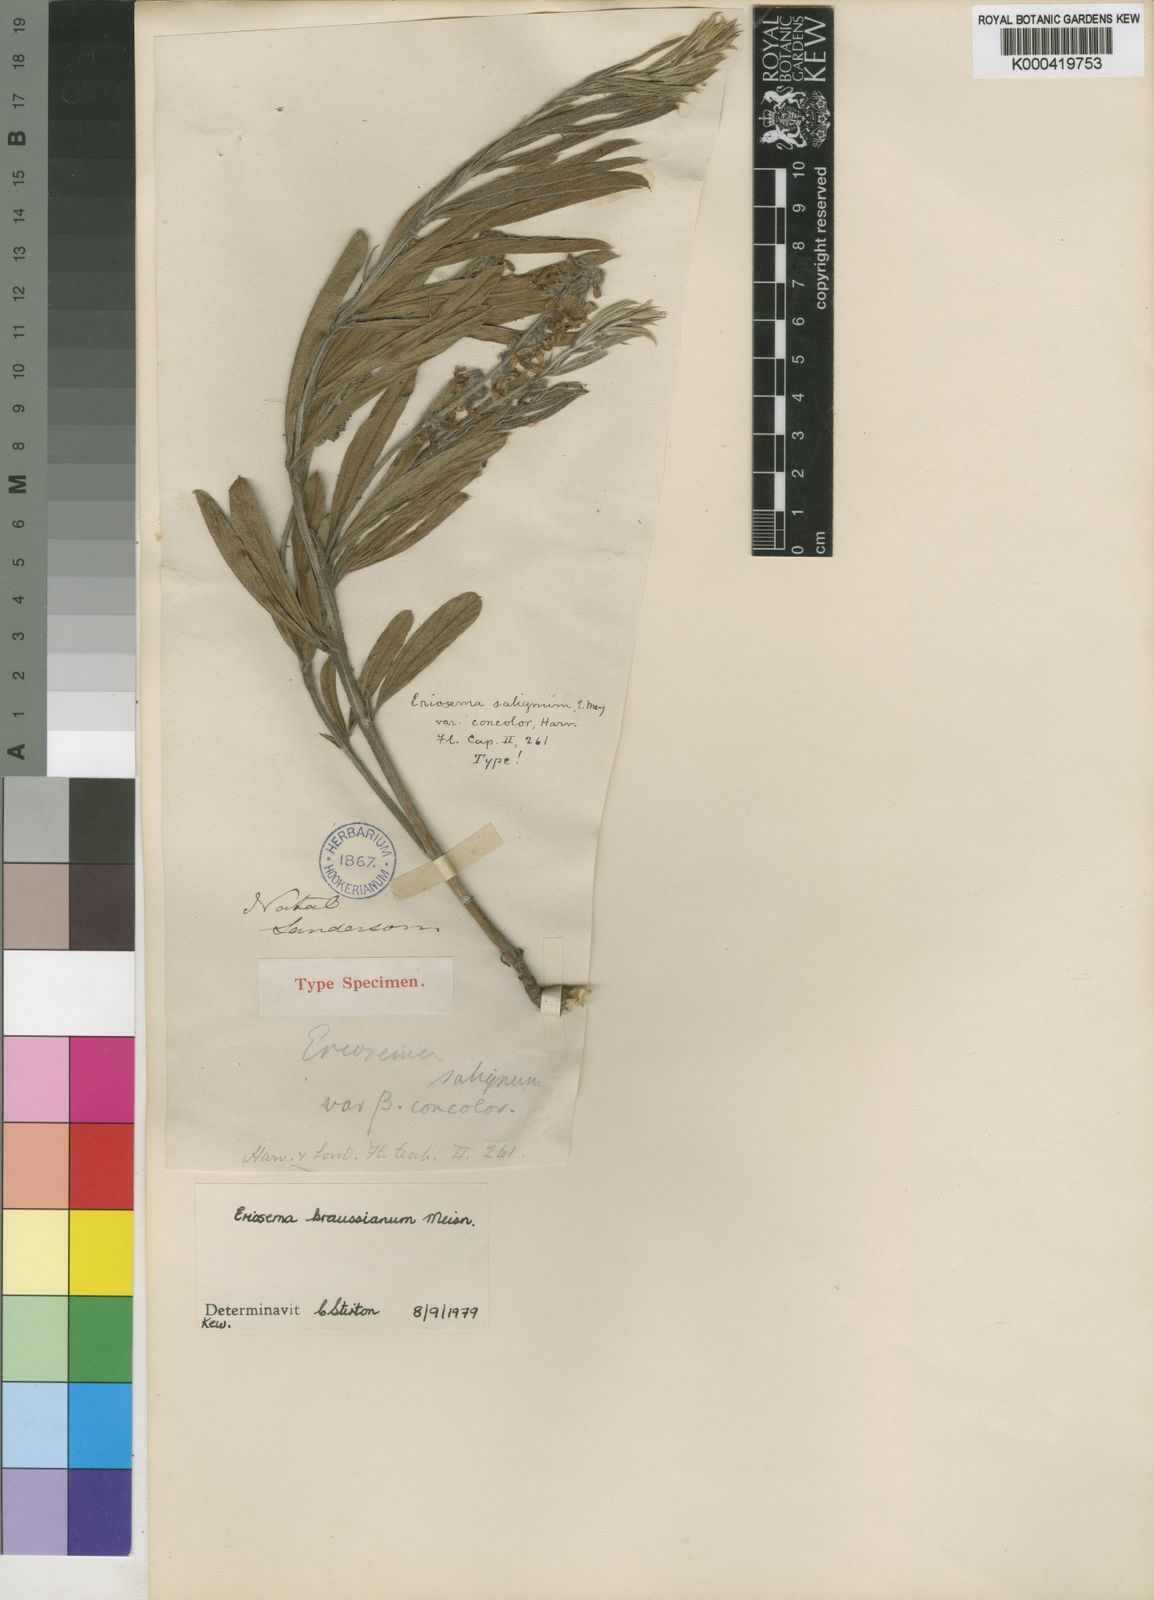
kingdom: Plantae
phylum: Tracheophyta
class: Magnoliopsida
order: Fabales
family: Fabaceae
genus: Eriosema
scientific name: Eriosema kraussianum
